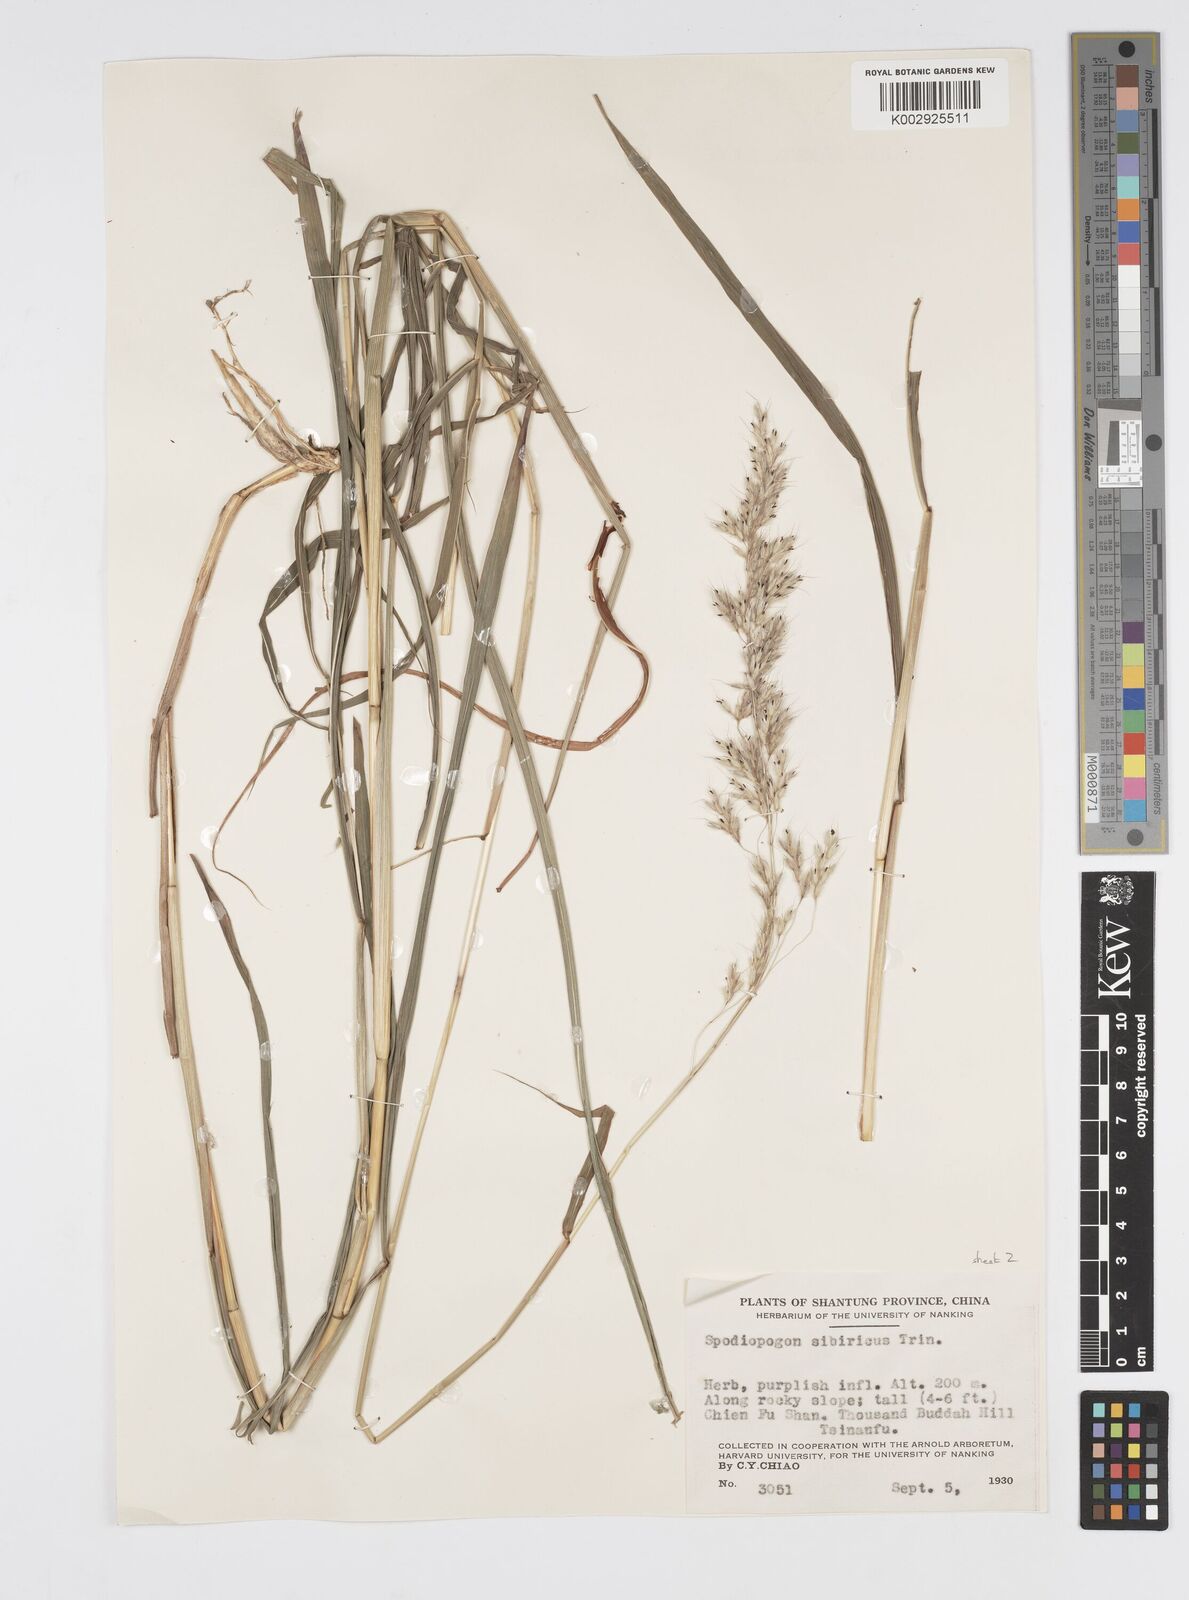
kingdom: Plantae
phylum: Tracheophyta
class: Liliopsida
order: Poales
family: Poaceae
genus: Spodiopogon
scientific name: Spodiopogon sibiricus
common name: Siberian graybeard
